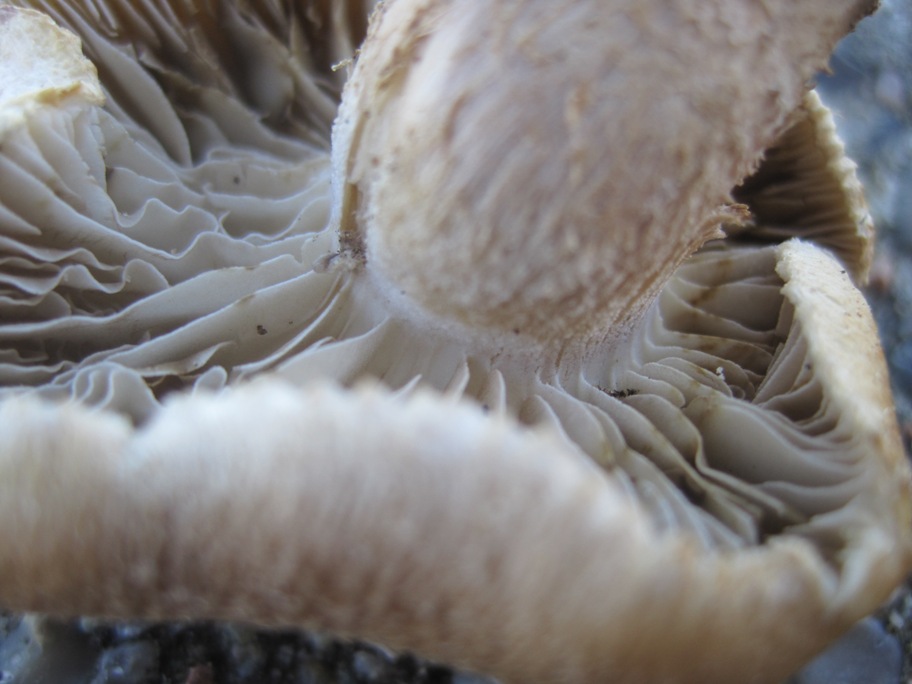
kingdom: Fungi
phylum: Basidiomycota
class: Agaricomycetes
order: Agaricales
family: Inocybaceae
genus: Inocybe
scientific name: Inocybe melanopoda
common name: sortfodet trævlhat
